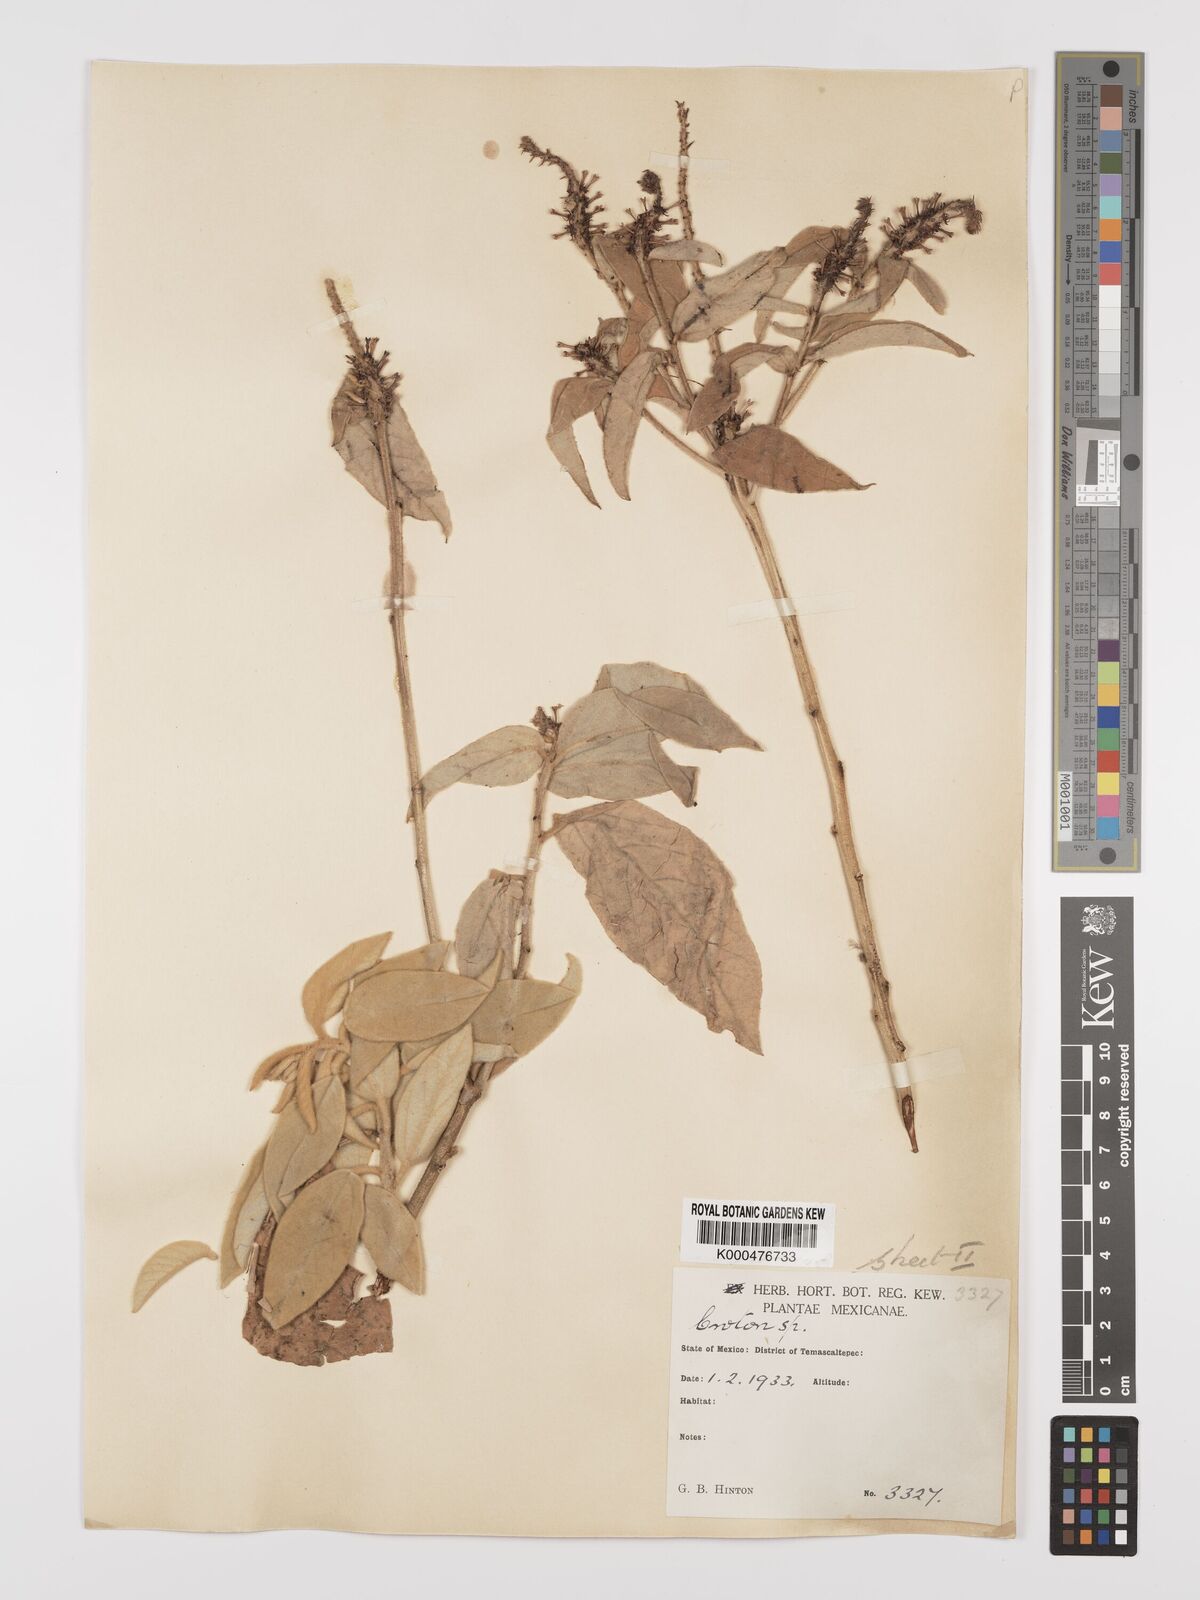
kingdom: Plantae
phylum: Tracheophyta
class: Magnoliopsida
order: Malpighiales
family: Euphorbiaceae
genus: Croton
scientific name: Croton
